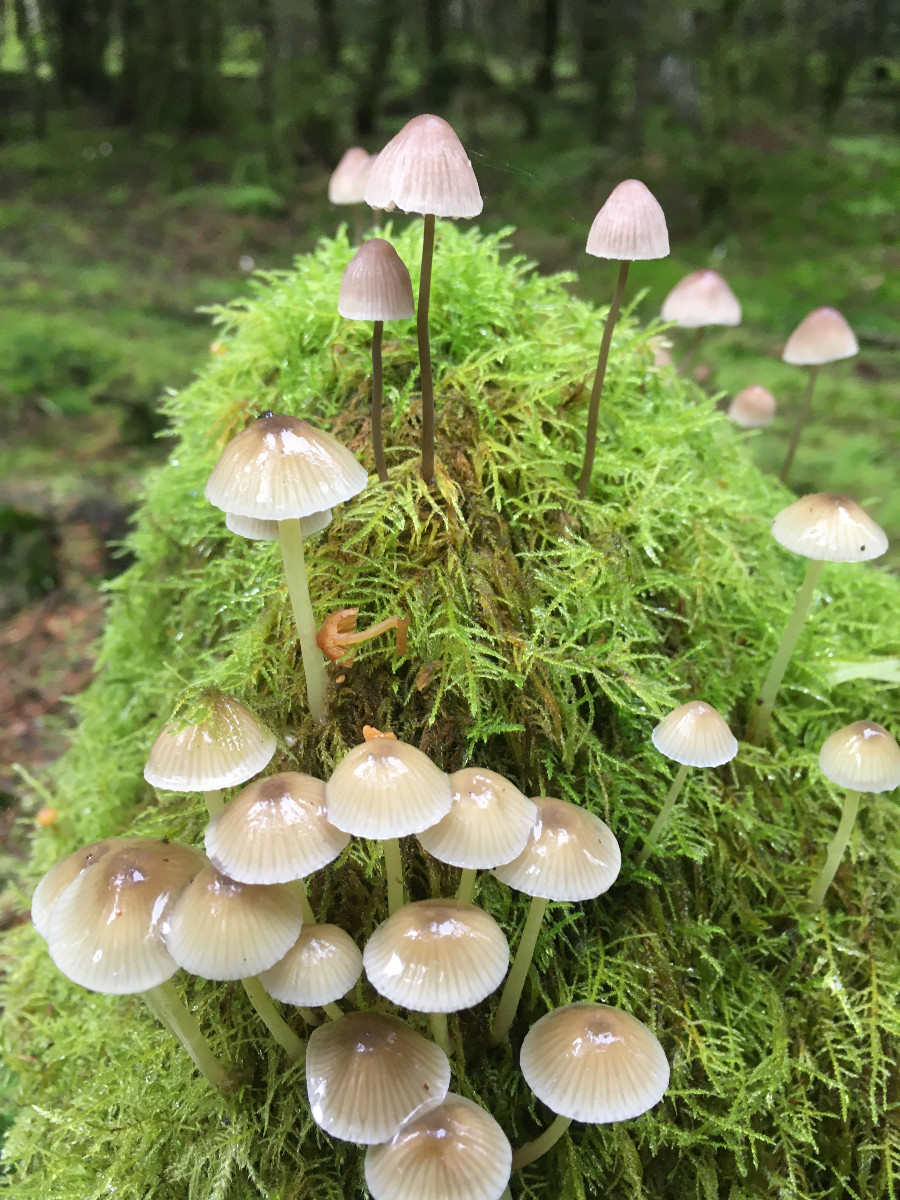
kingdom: Fungi
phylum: Basidiomycota
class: Agaricomycetes
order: Agaricales
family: Mycenaceae
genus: Mycena
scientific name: Mycena metata
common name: rødlig huesvamp
